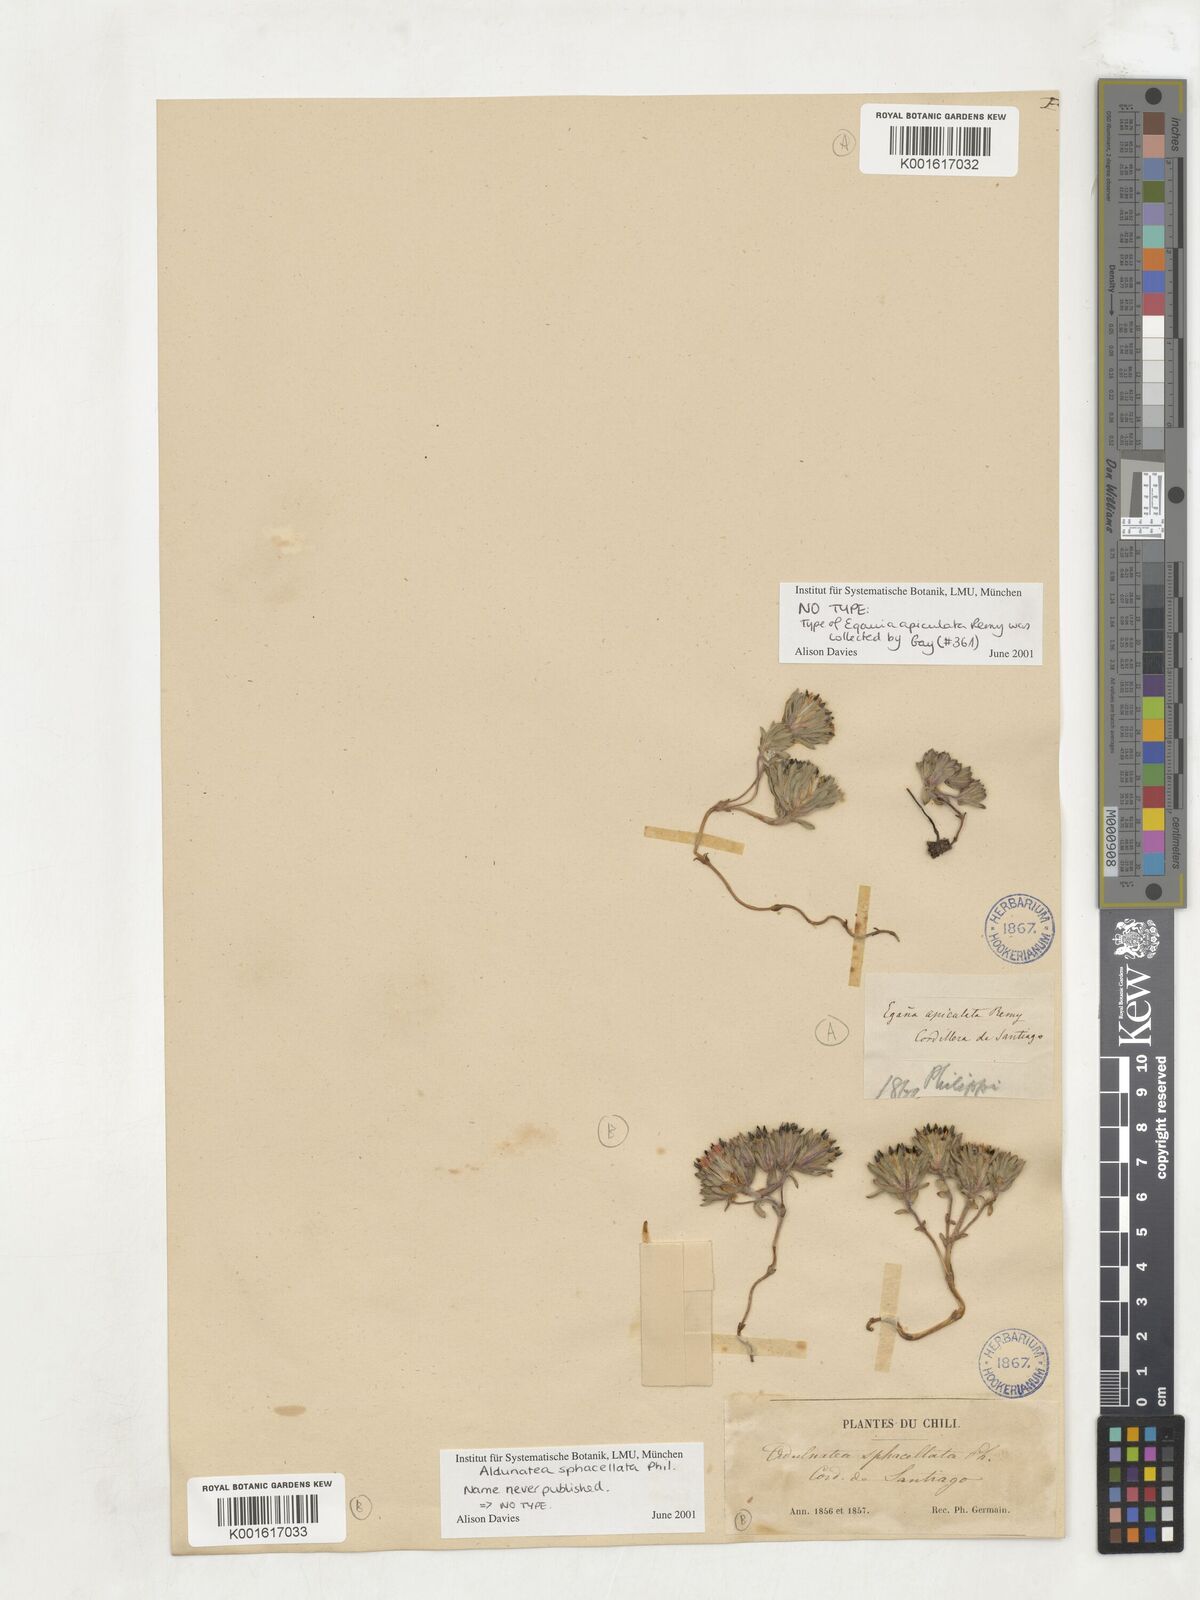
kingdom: Plantae
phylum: Tracheophyta
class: Magnoliopsida
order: Asterales
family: Asteraceae
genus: Oriastrum
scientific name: Oriastrum
